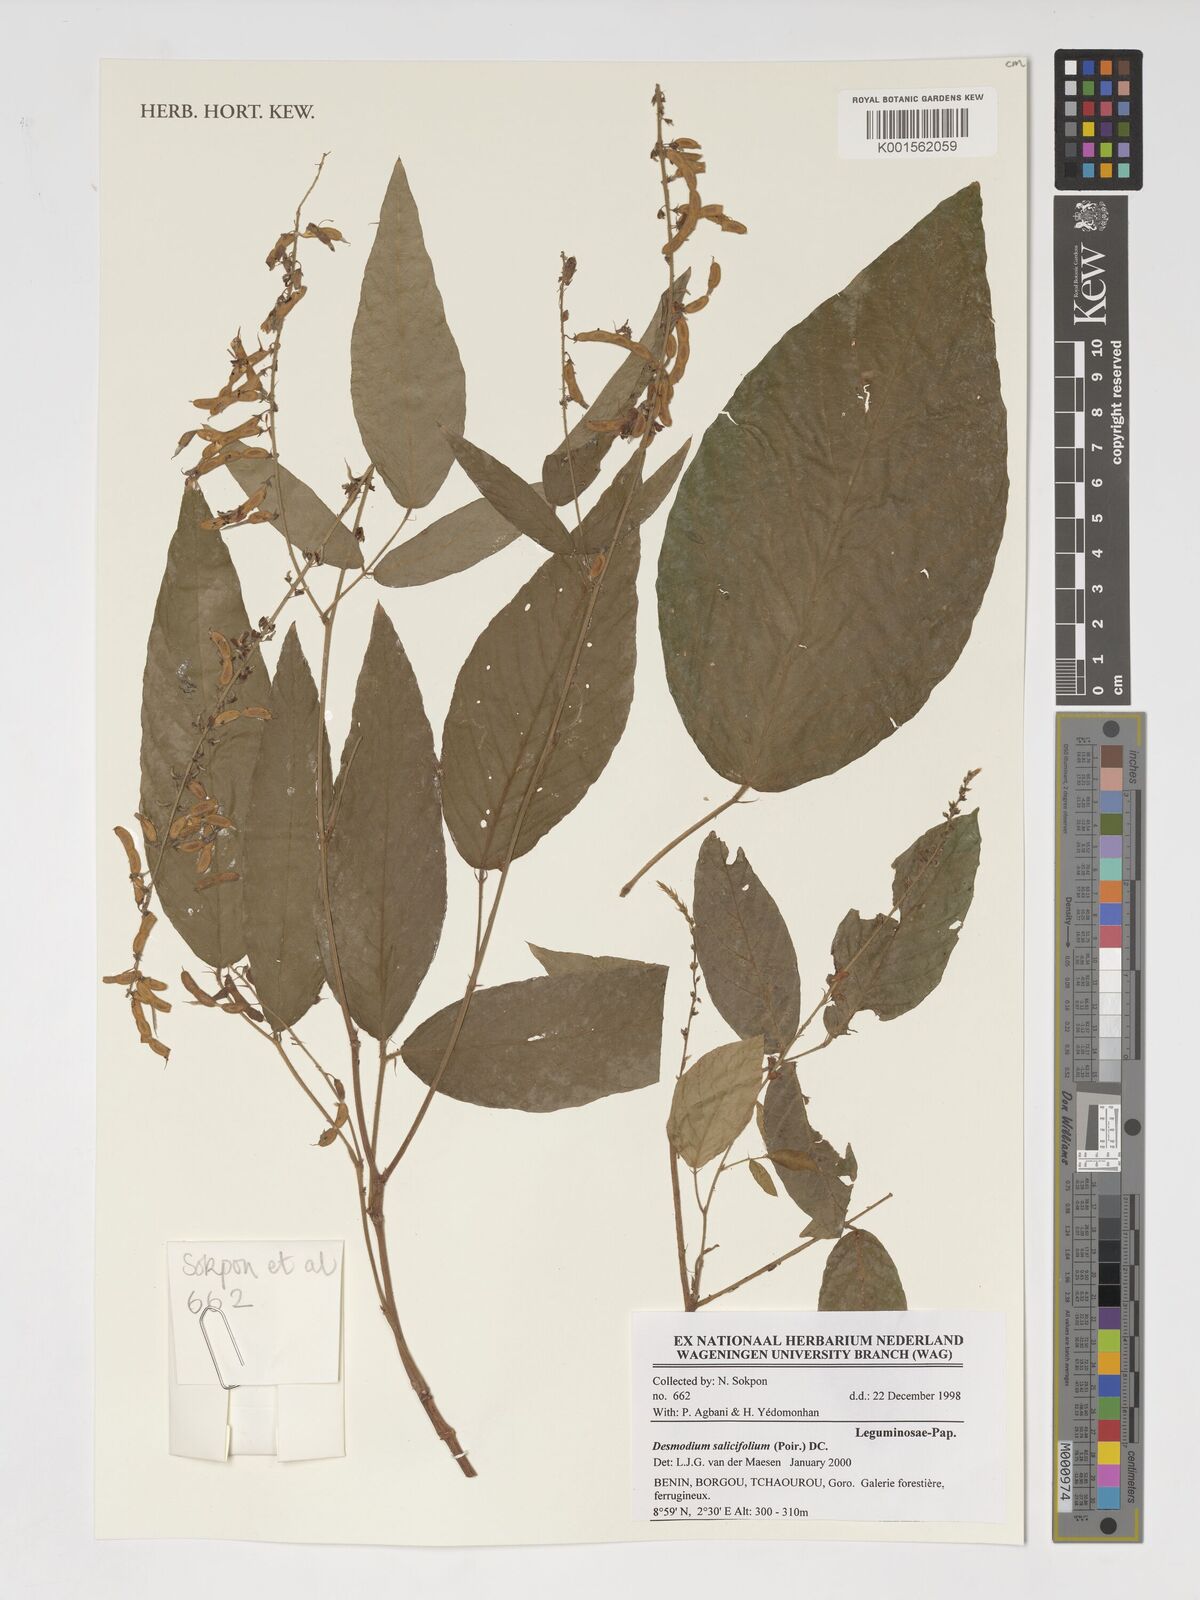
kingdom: Plantae
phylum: Tracheophyta
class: Magnoliopsida
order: Fabales
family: Fabaceae
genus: Pleurolobus
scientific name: Pleurolobus salicifolius
